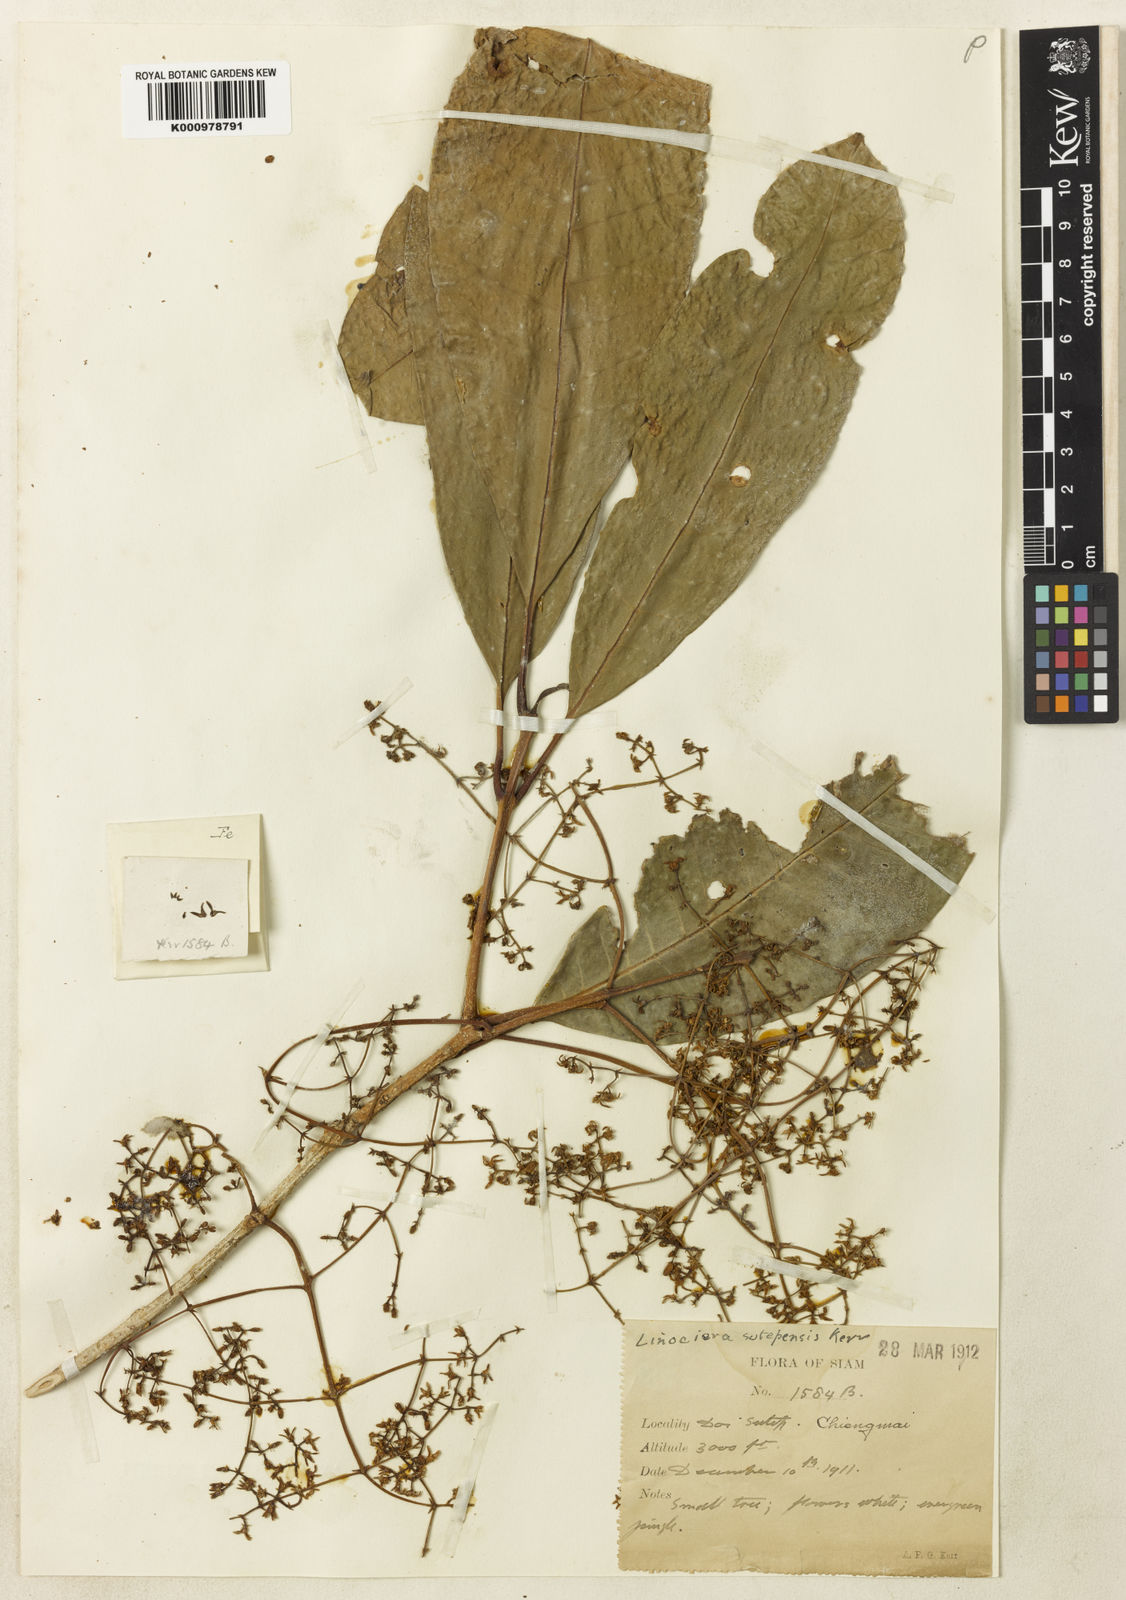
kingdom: Plantae
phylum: Tracheophyta
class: Magnoliopsida
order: Lamiales
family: Oleaceae
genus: Chionanthus
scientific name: Chionanthus sutepensis
